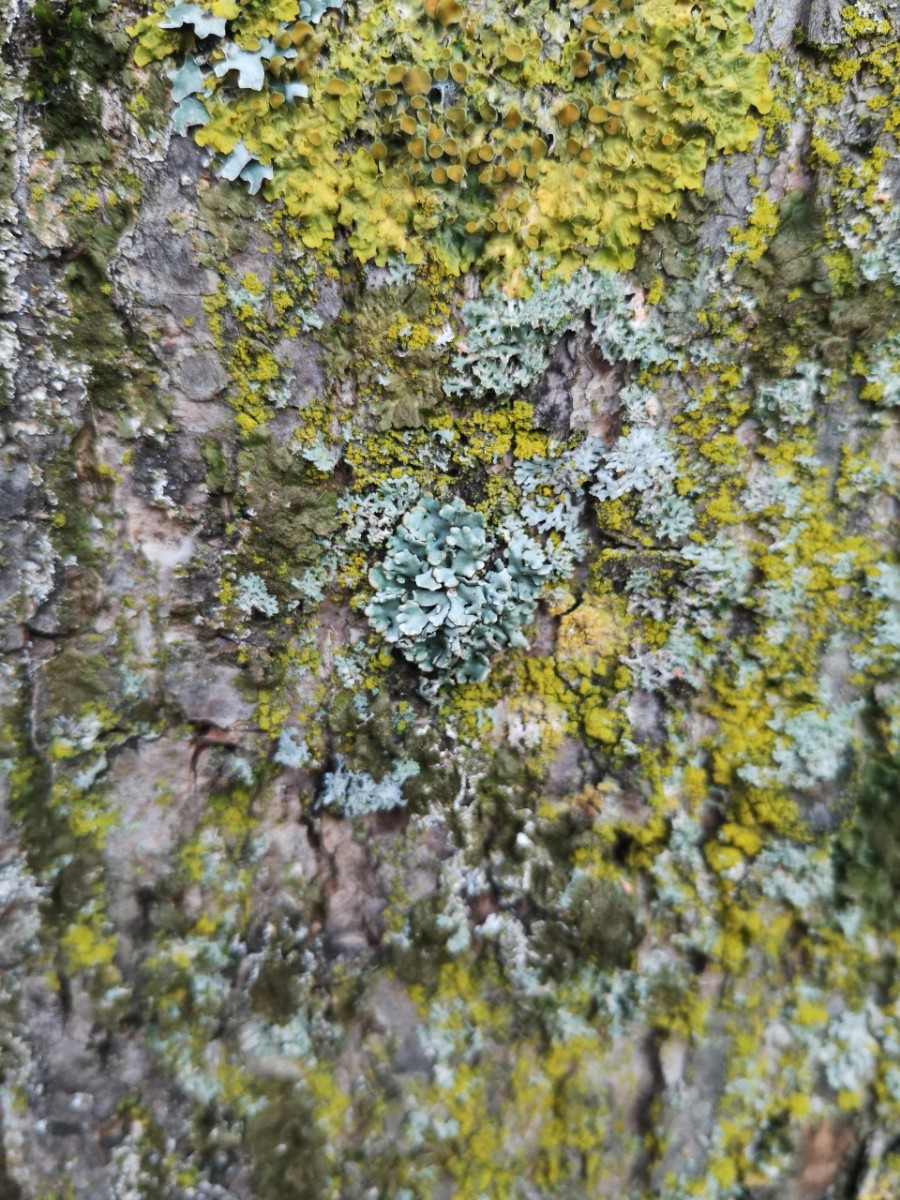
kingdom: Fungi
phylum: Ascomycota
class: Lecanoromycetes
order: Lecanorales
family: Parmeliaceae
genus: Hypogymnia
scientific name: Hypogymnia physodes
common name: almindelig kvistlav
